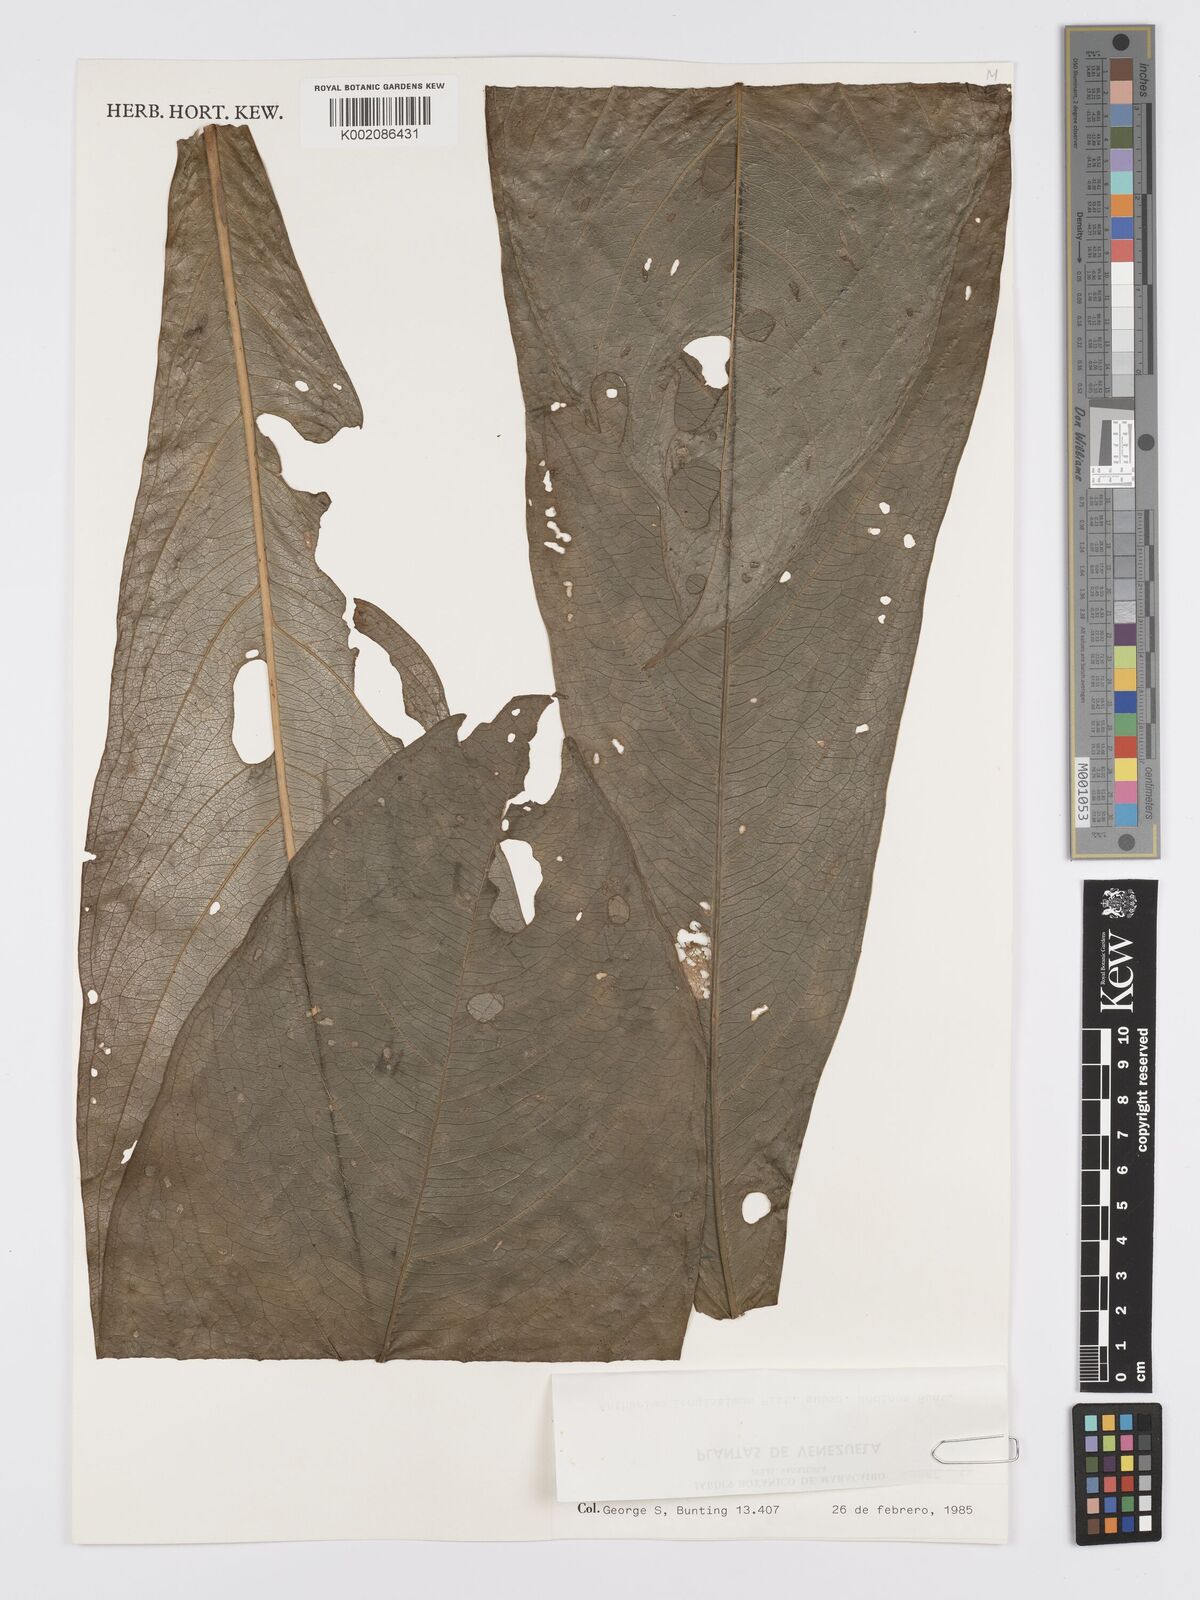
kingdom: Plantae
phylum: Tracheophyta
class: Liliopsida
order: Alismatales
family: Araceae
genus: Anthurium
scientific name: Anthurium longissimum
